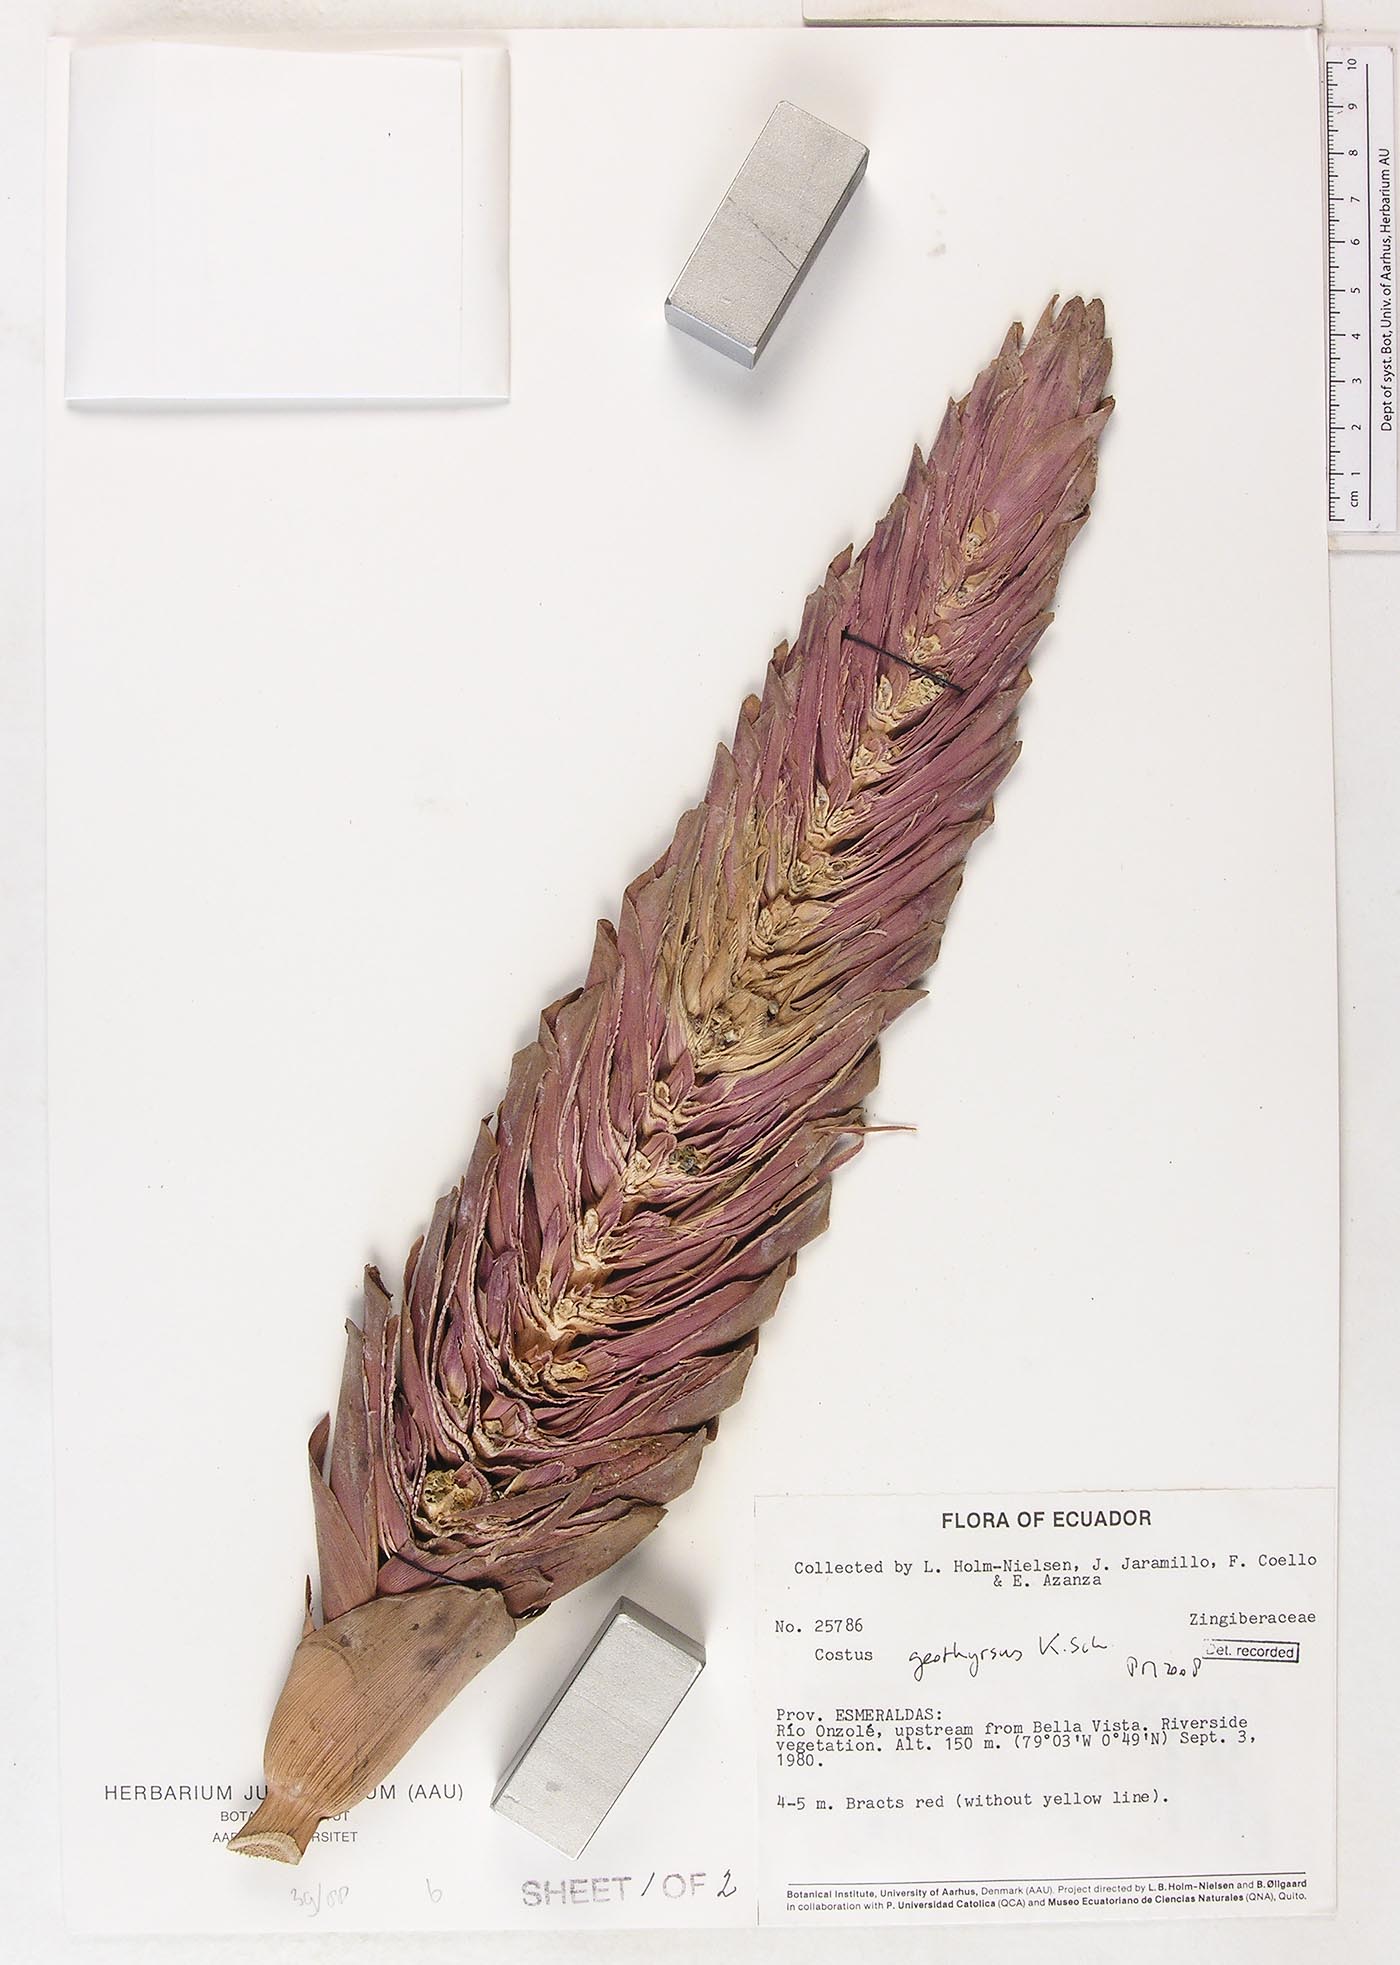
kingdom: Plantae
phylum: Tracheophyta
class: Liliopsida
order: Zingiberales
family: Costaceae
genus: Costus
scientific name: Costus geothyrsus
